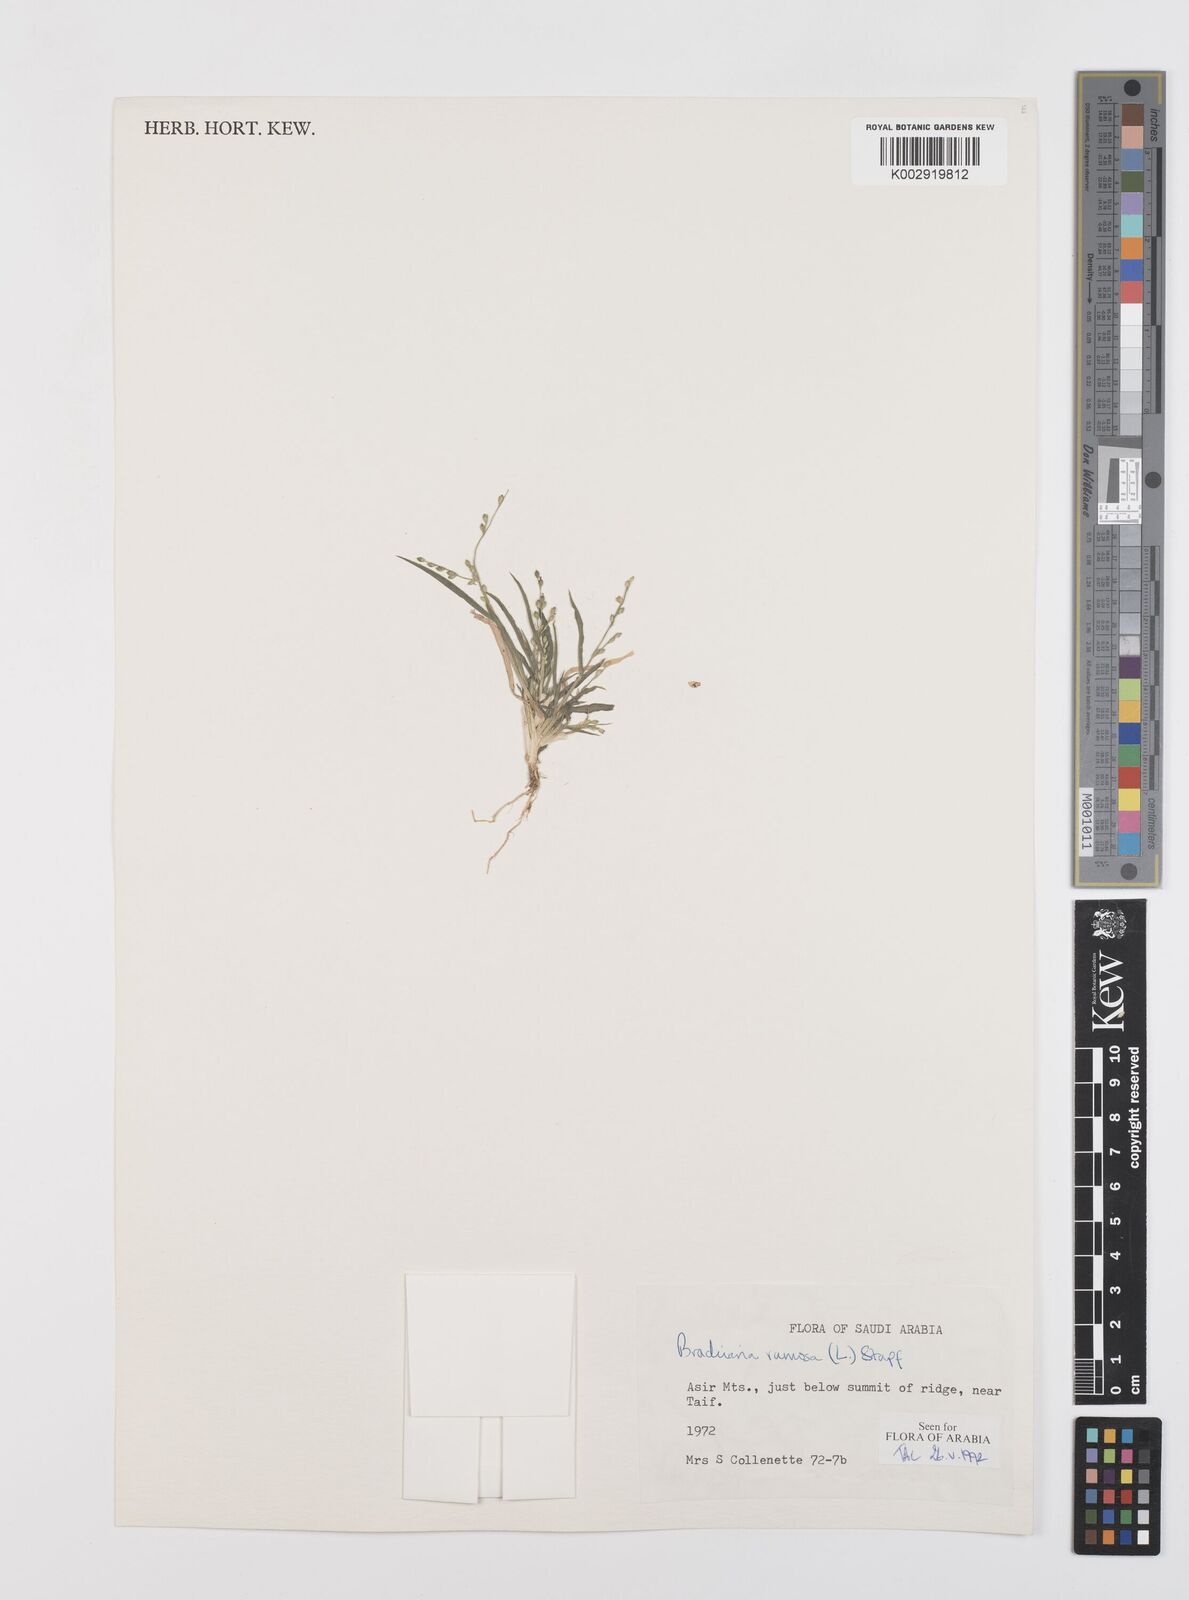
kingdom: Plantae
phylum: Tracheophyta
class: Liliopsida
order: Poales
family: Poaceae
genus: Urochloa
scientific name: Urochloa ramosa
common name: Browntop millet
